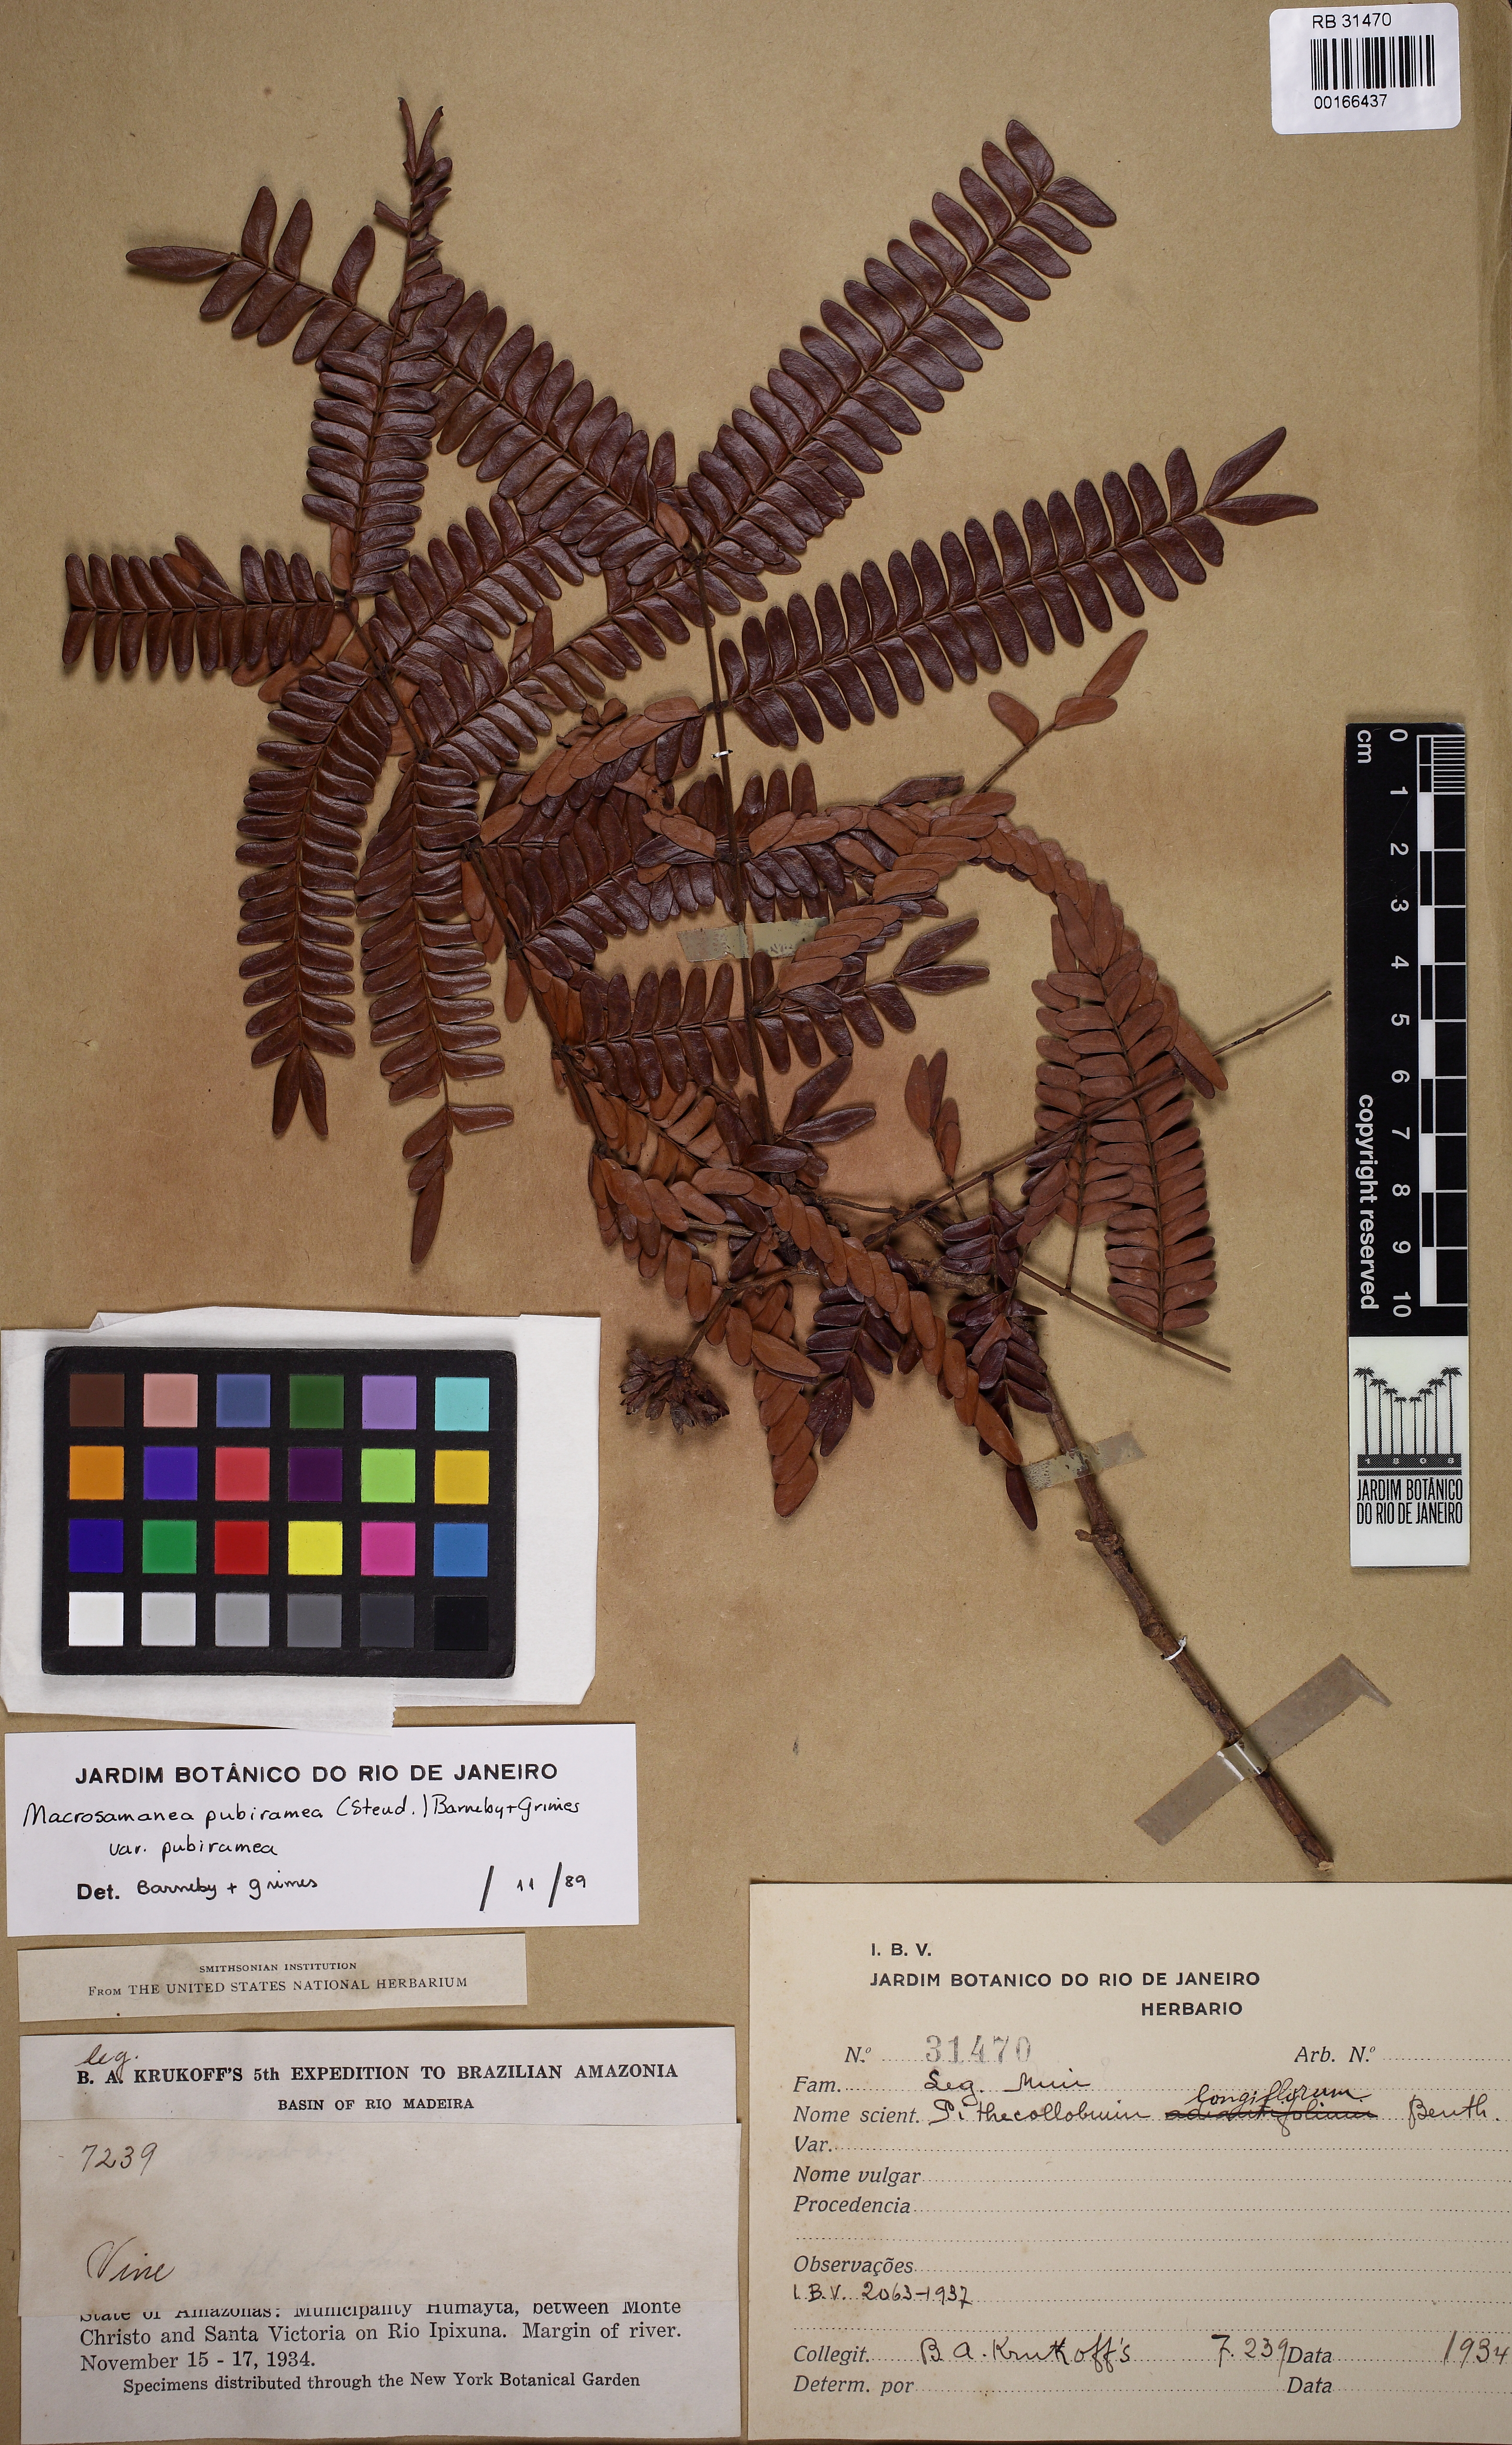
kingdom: Plantae
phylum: Tracheophyta
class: Magnoliopsida
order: Fabales
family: Fabaceae
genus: Macrosamanea
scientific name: Macrosamanea pubiramea
